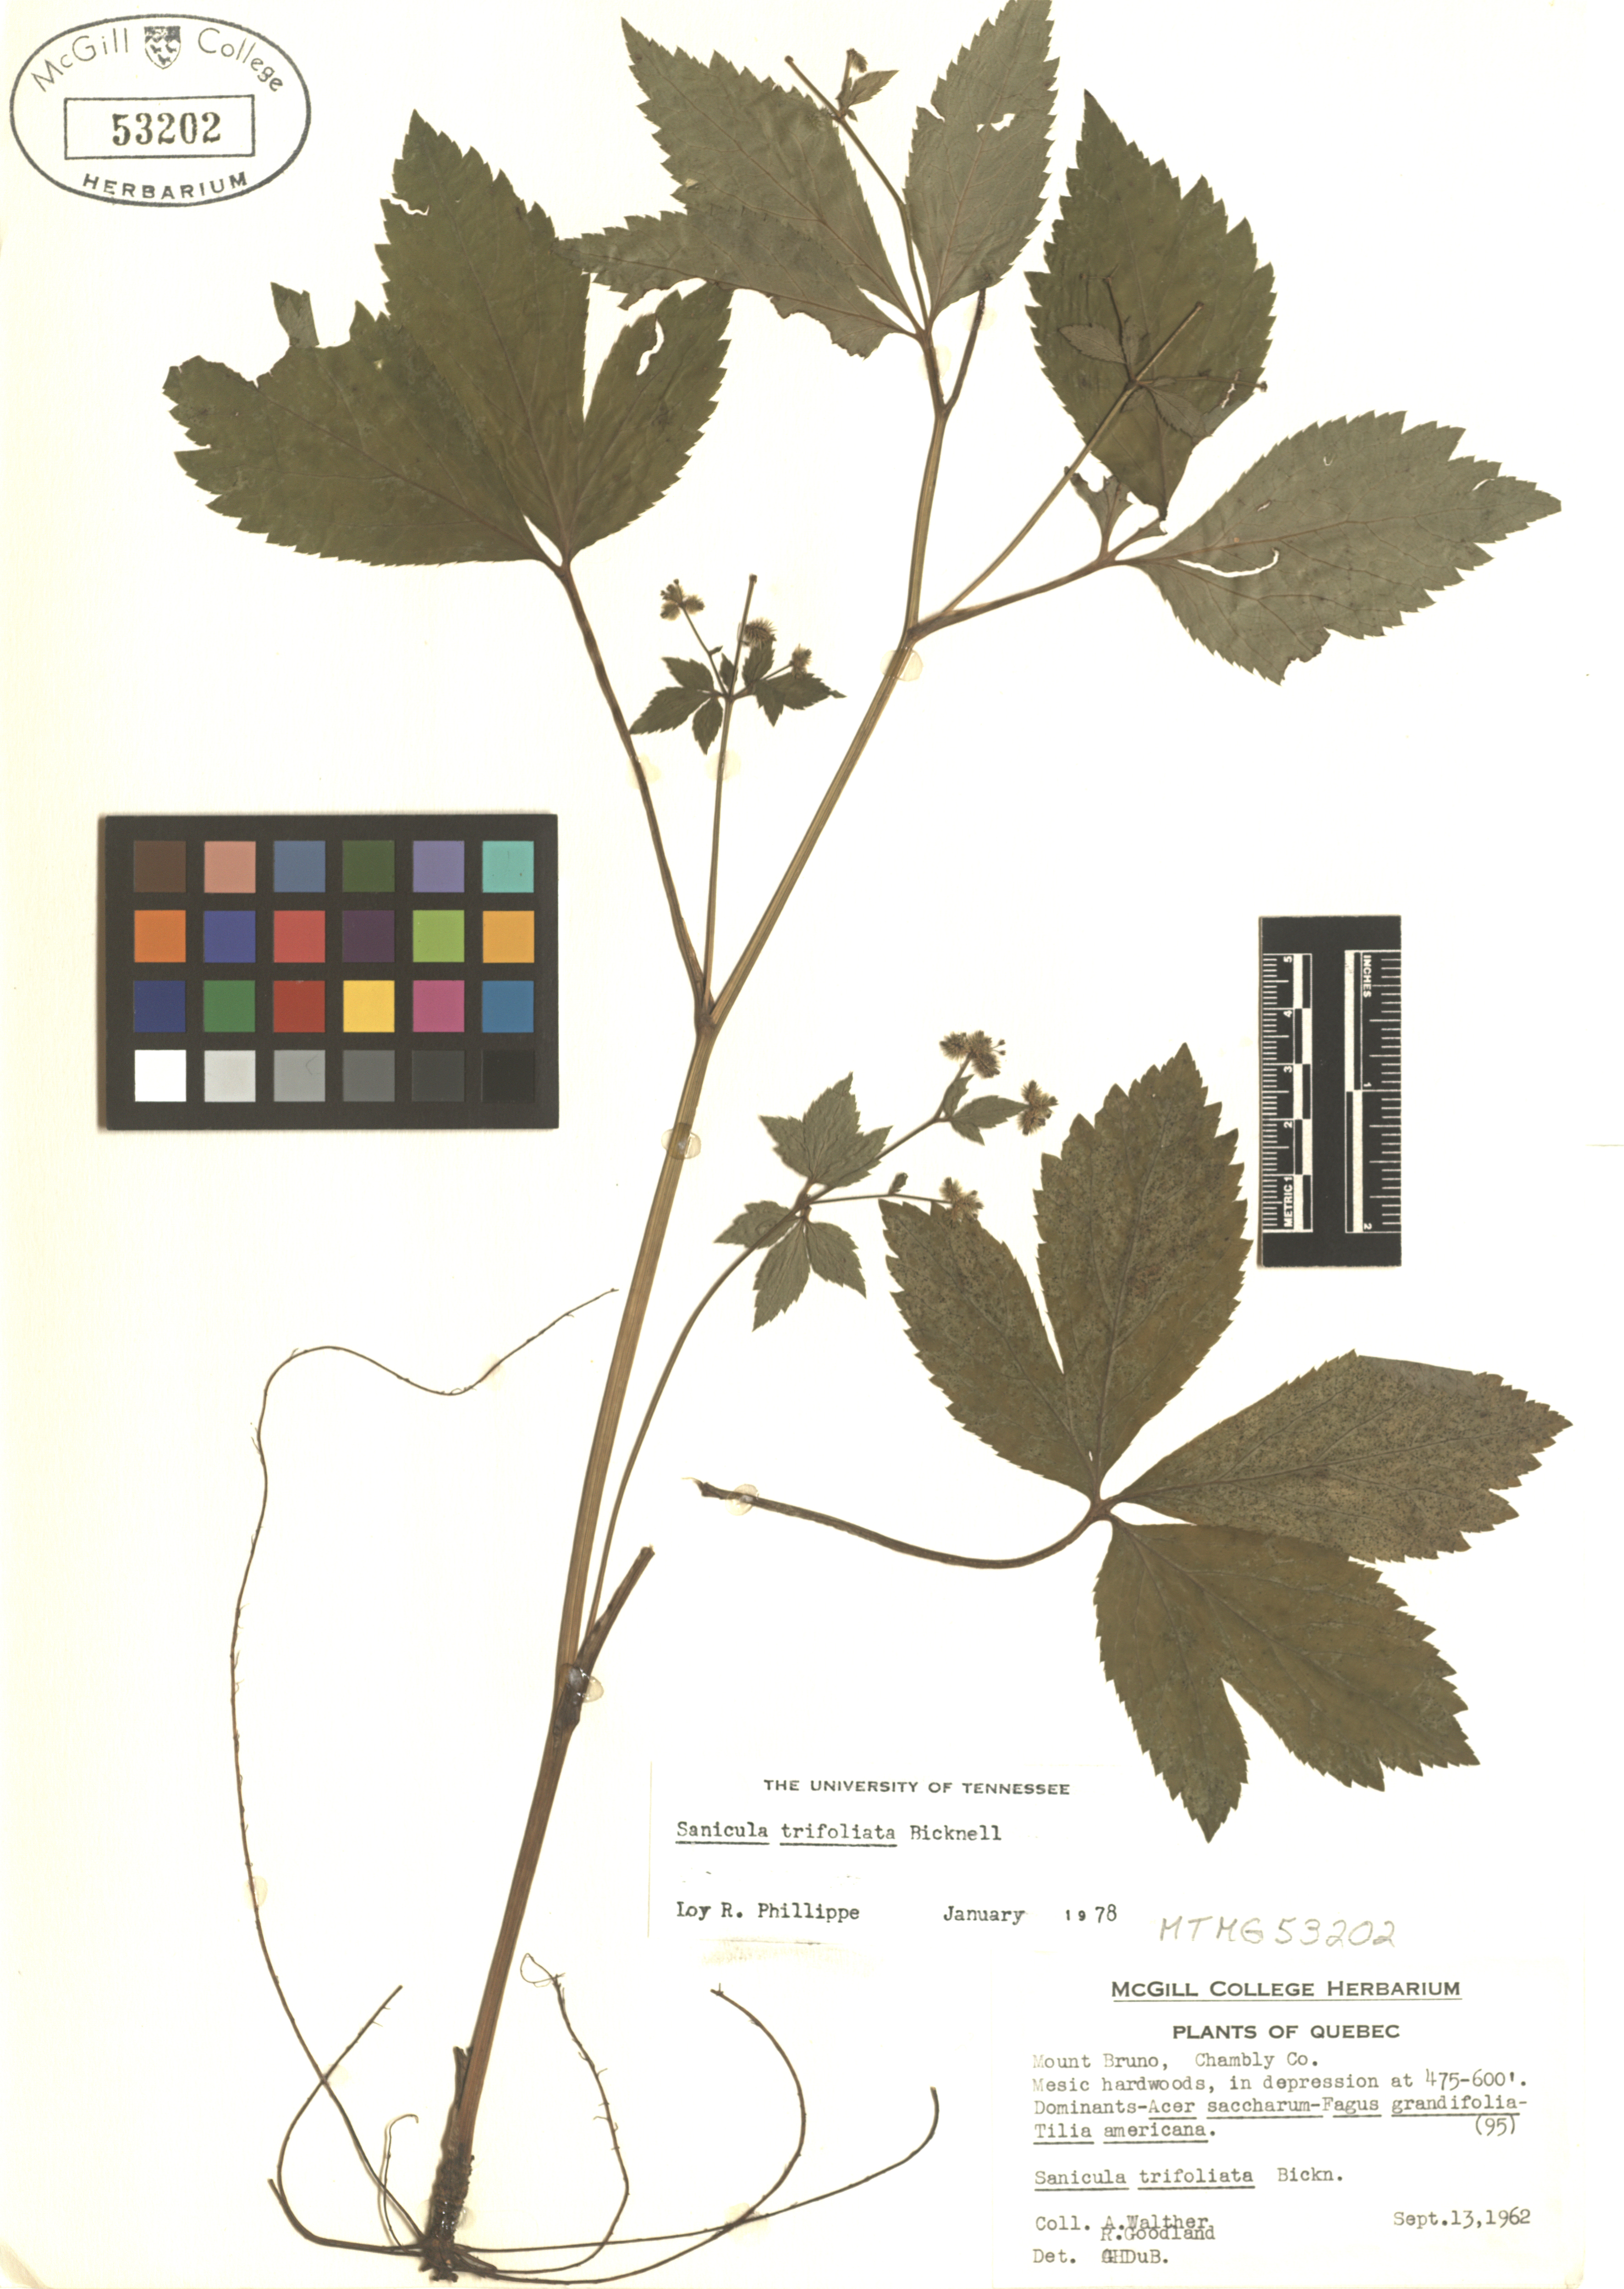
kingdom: Plantae
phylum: Tracheophyta
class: Magnoliopsida
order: Apiales
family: Apiaceae
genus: Sanicula
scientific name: Sanicula trifoliata
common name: Beaked sanicle
